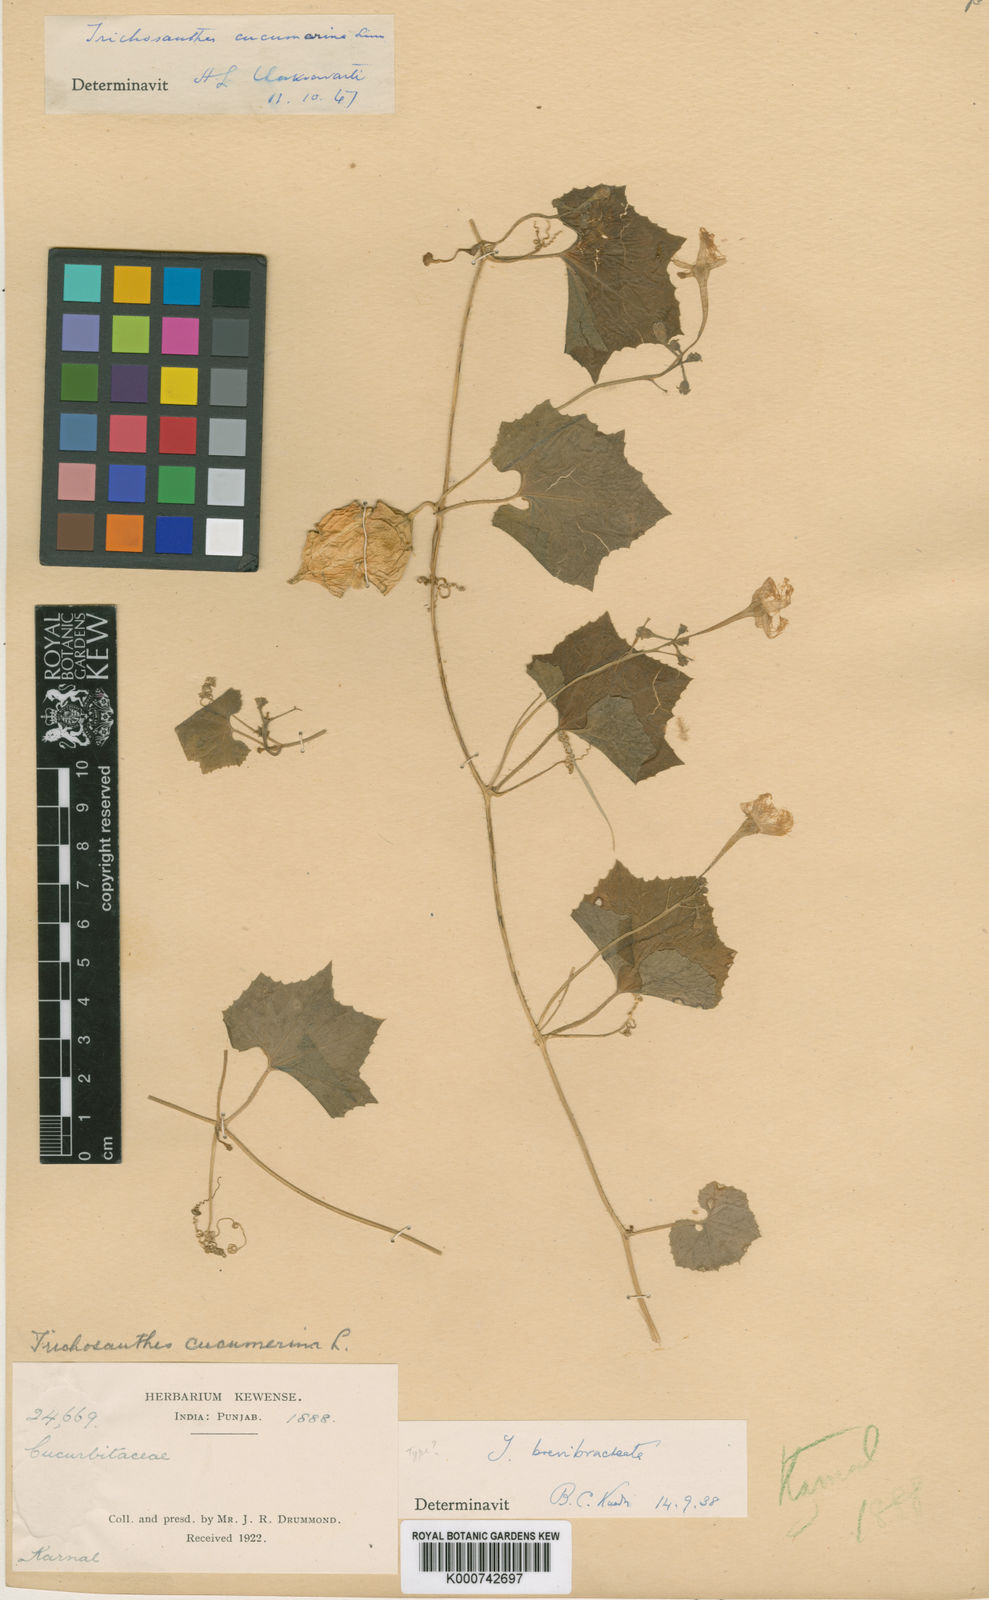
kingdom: Plantae
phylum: Tracheophyta
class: Magnoliopsida
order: Cucurbitales
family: Cucurbitaceae
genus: Trichosanthes
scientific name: Trichosanthes cucumerina
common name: Snakegourd
